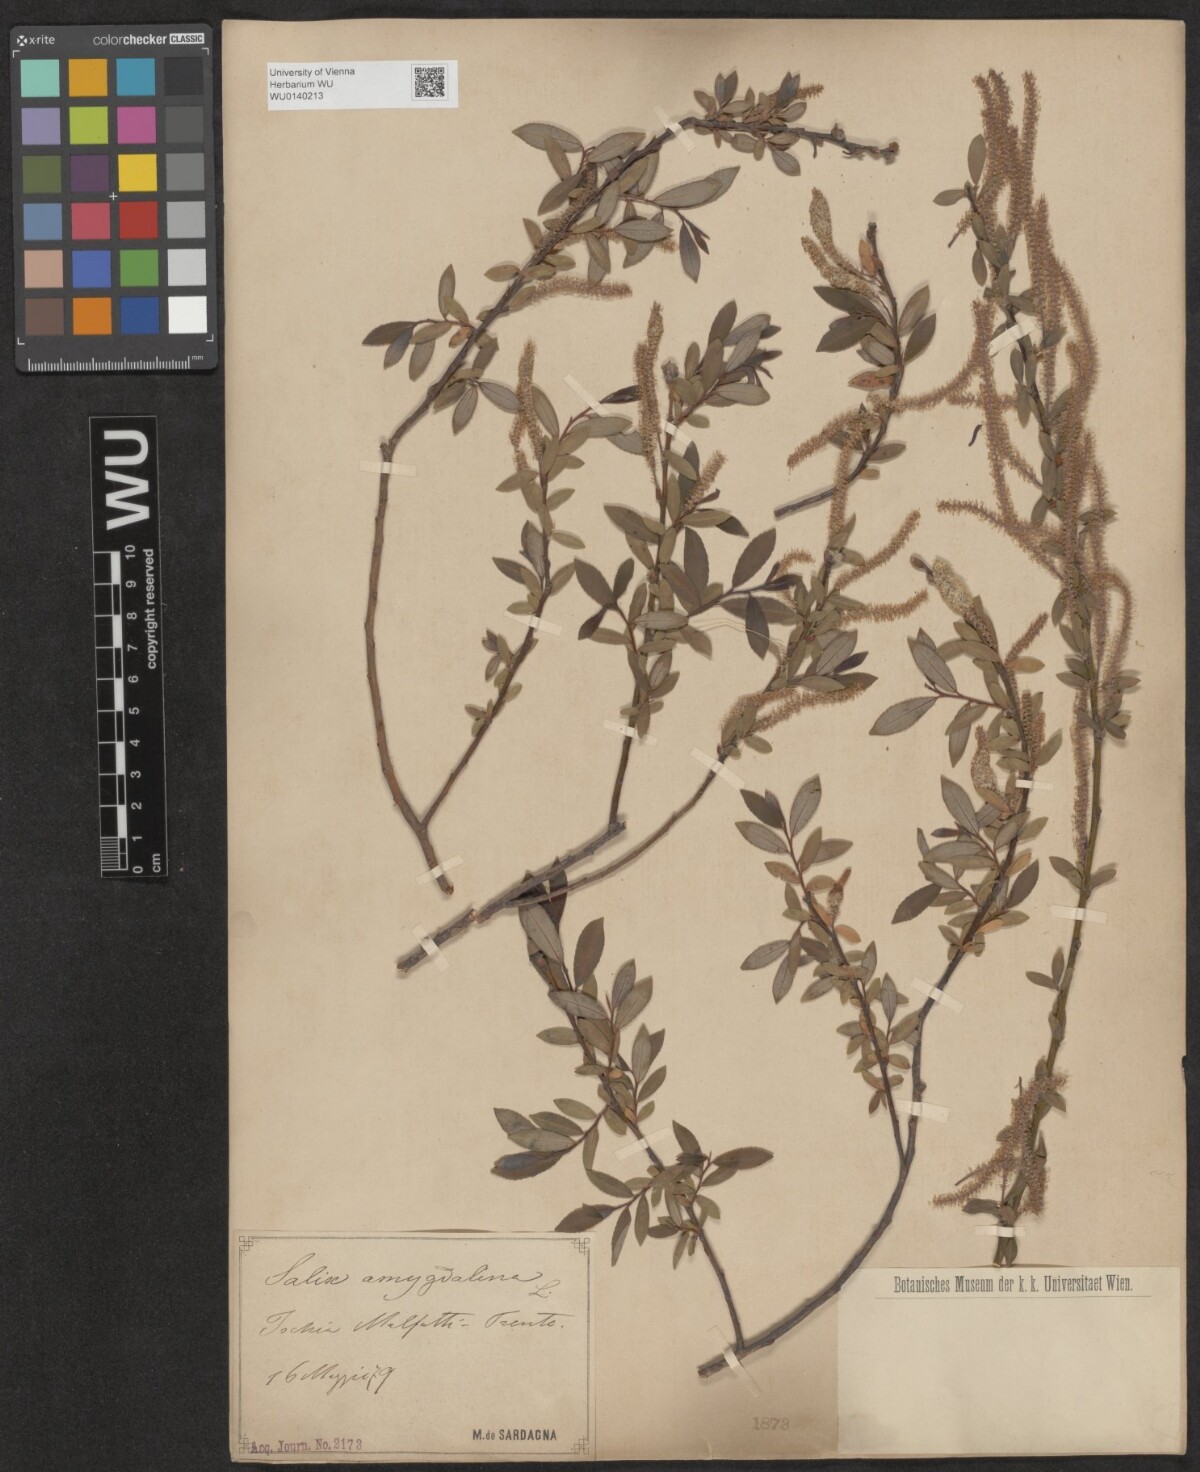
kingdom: Plantae
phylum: Tracheophyta
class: Magnoliopsida
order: Malpighiales
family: Salicaceae
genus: Salix
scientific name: Salix triandra
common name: Almond willow
